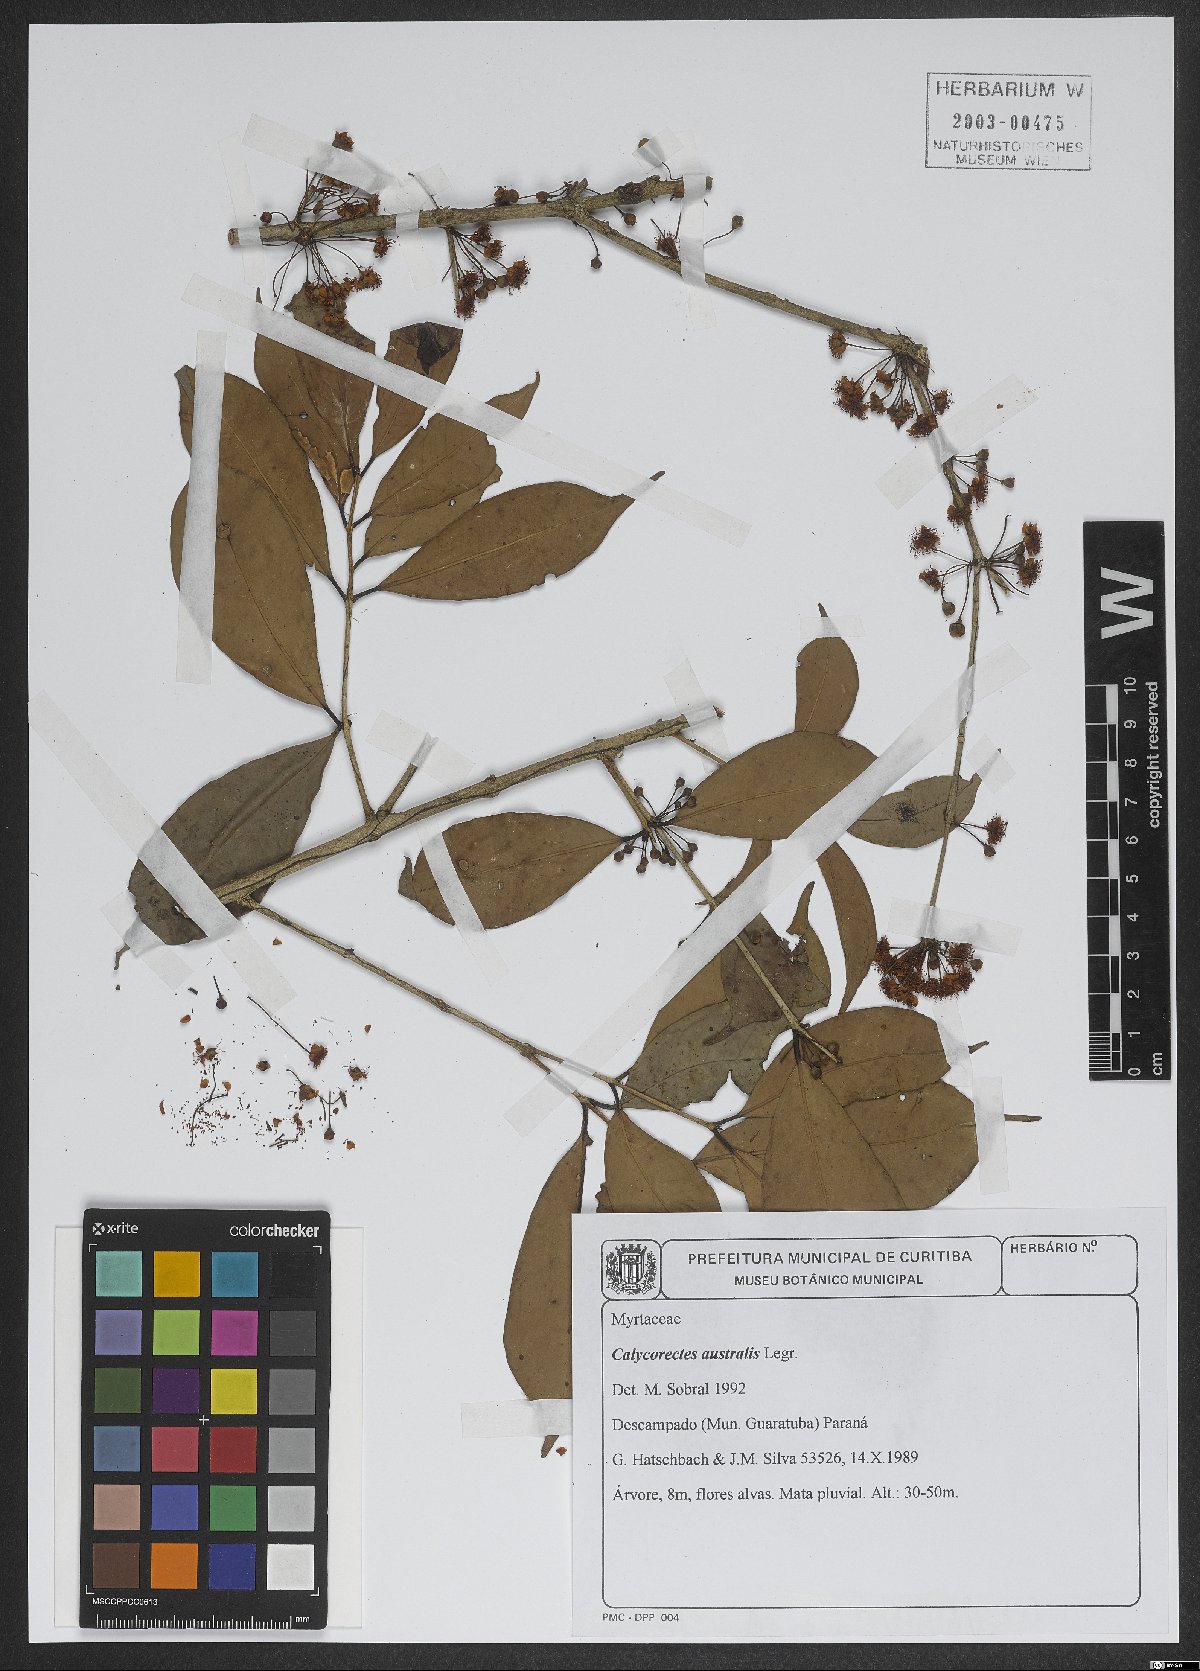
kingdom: Plantae
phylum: Tracheophyta
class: Magnoliopsida
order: Myrtales
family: Myrtaceae
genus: Eugenia
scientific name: Eugenia brevistyla
